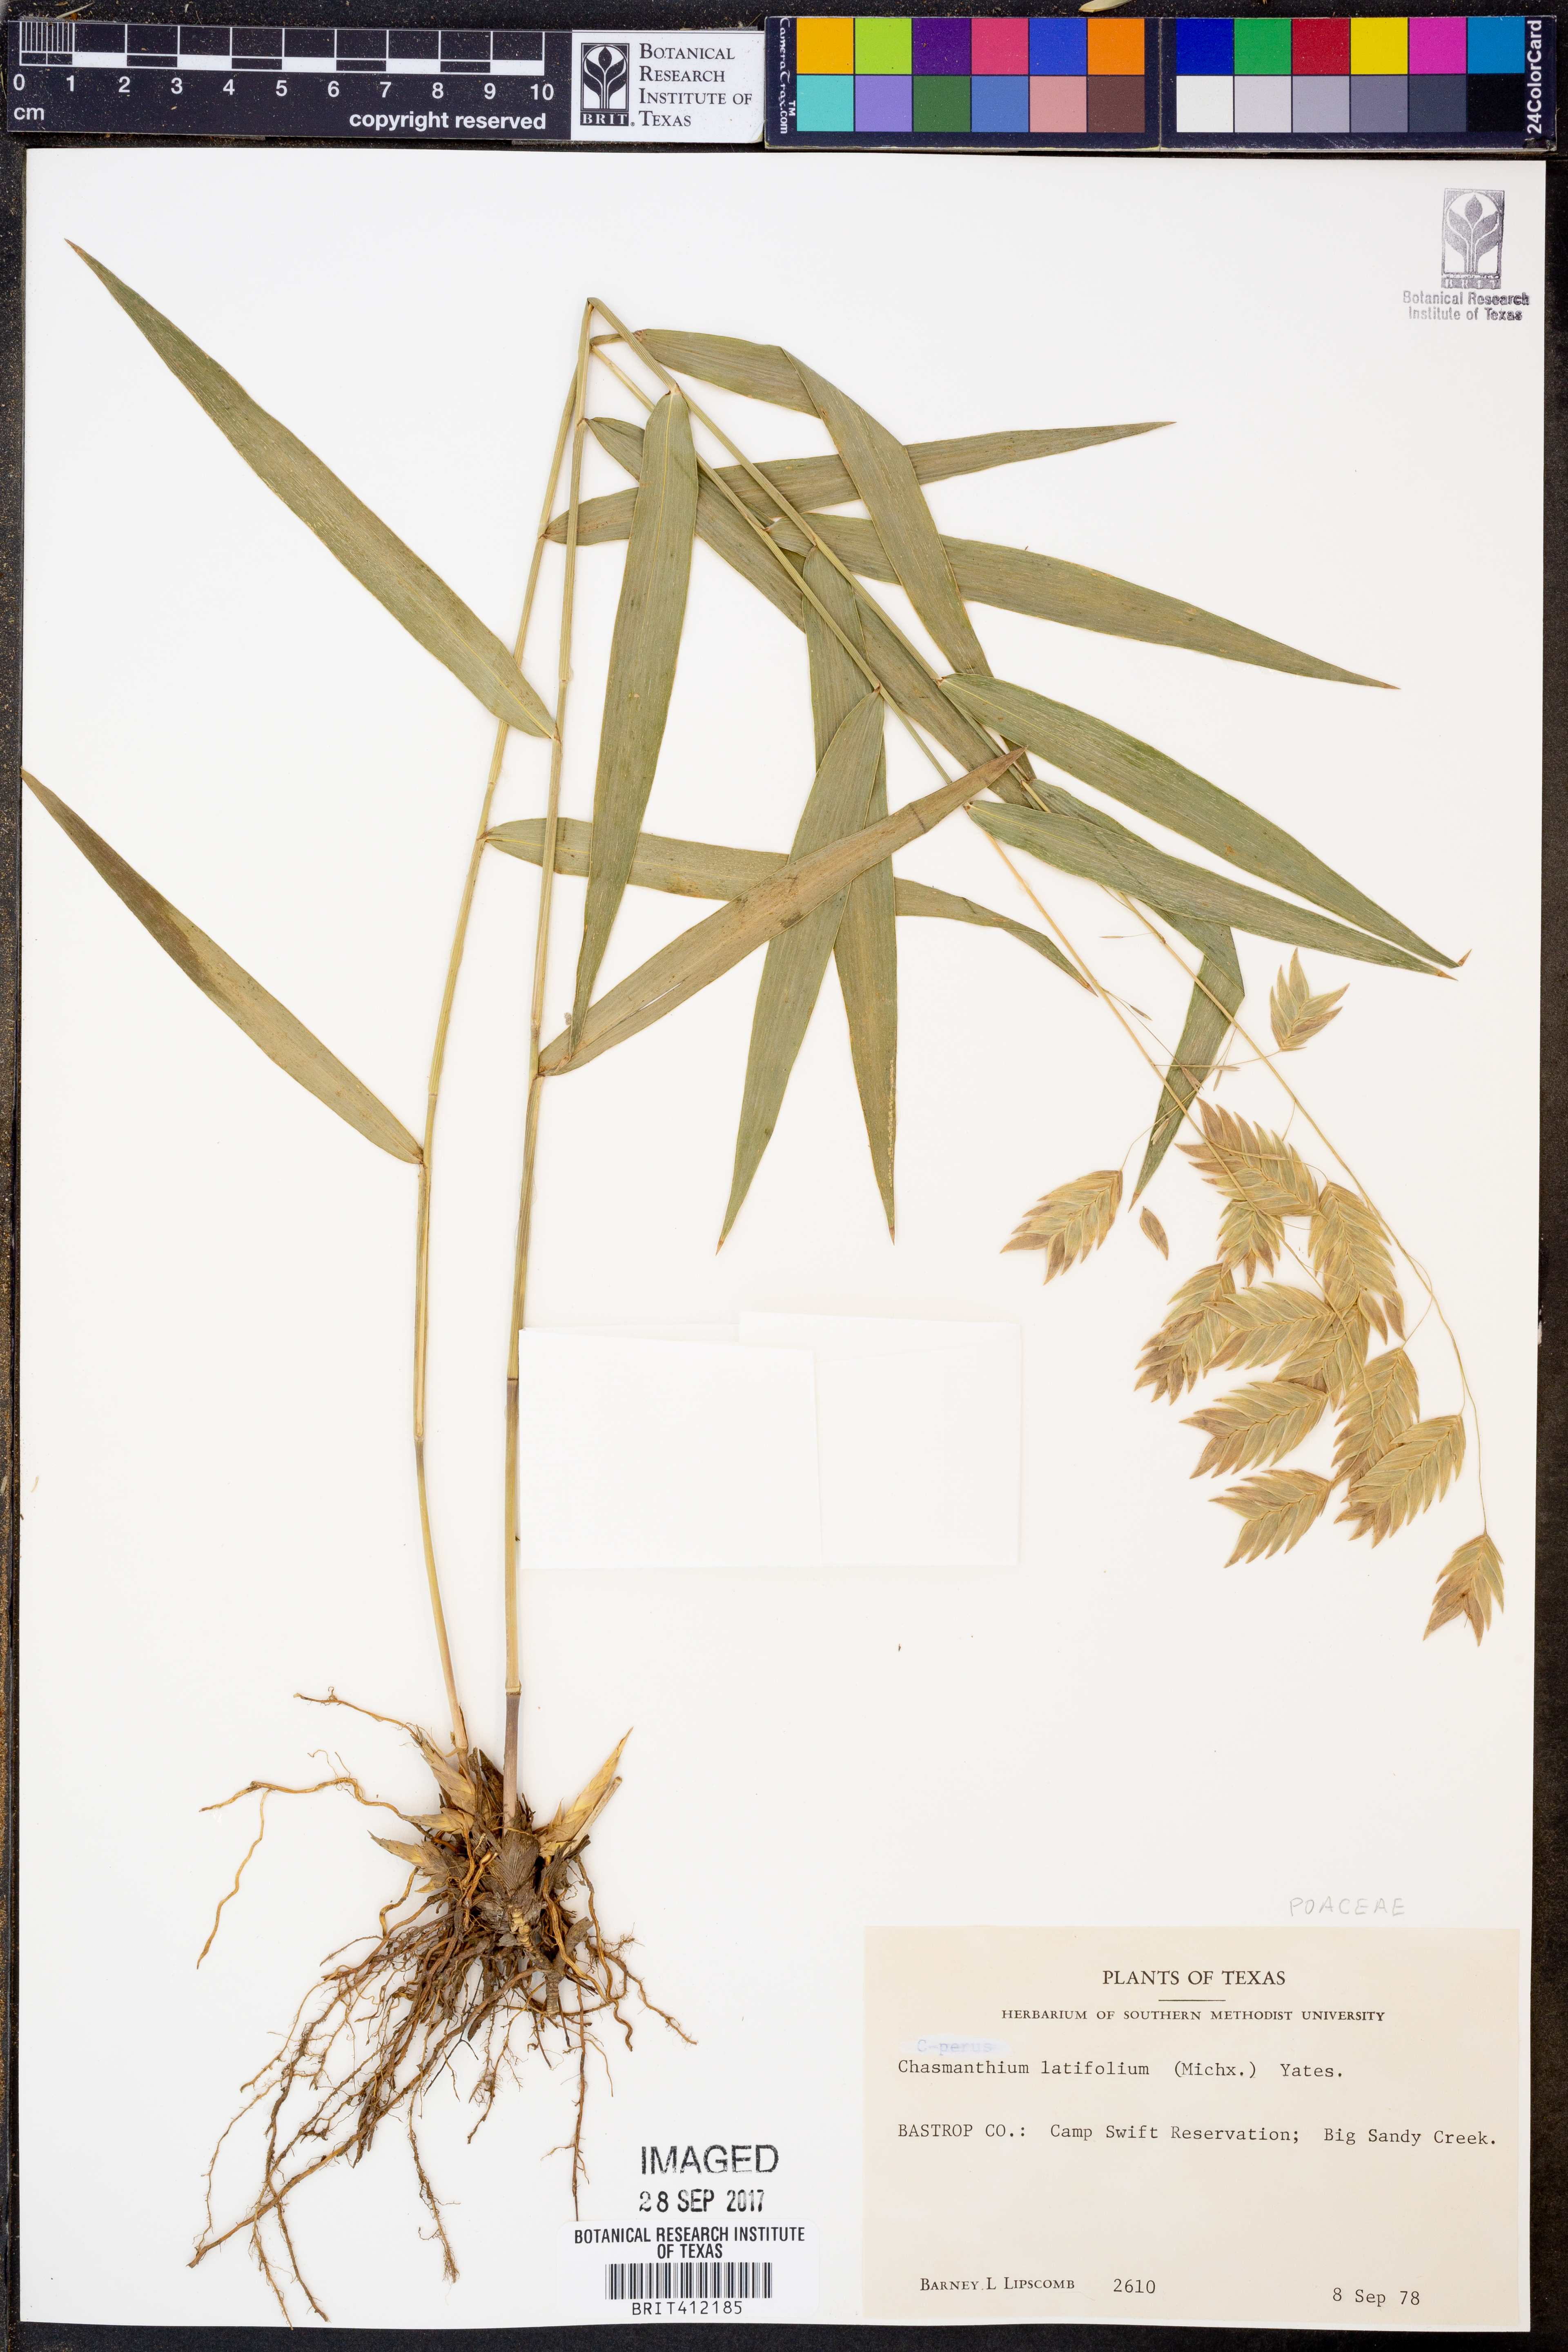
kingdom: Plantae
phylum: Tracheophyta
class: Liliopsida
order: Poales
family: Poaceae
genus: Chasmanthium
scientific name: Chasmanthium latifolium
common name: Broad-leaved chasmanthium
